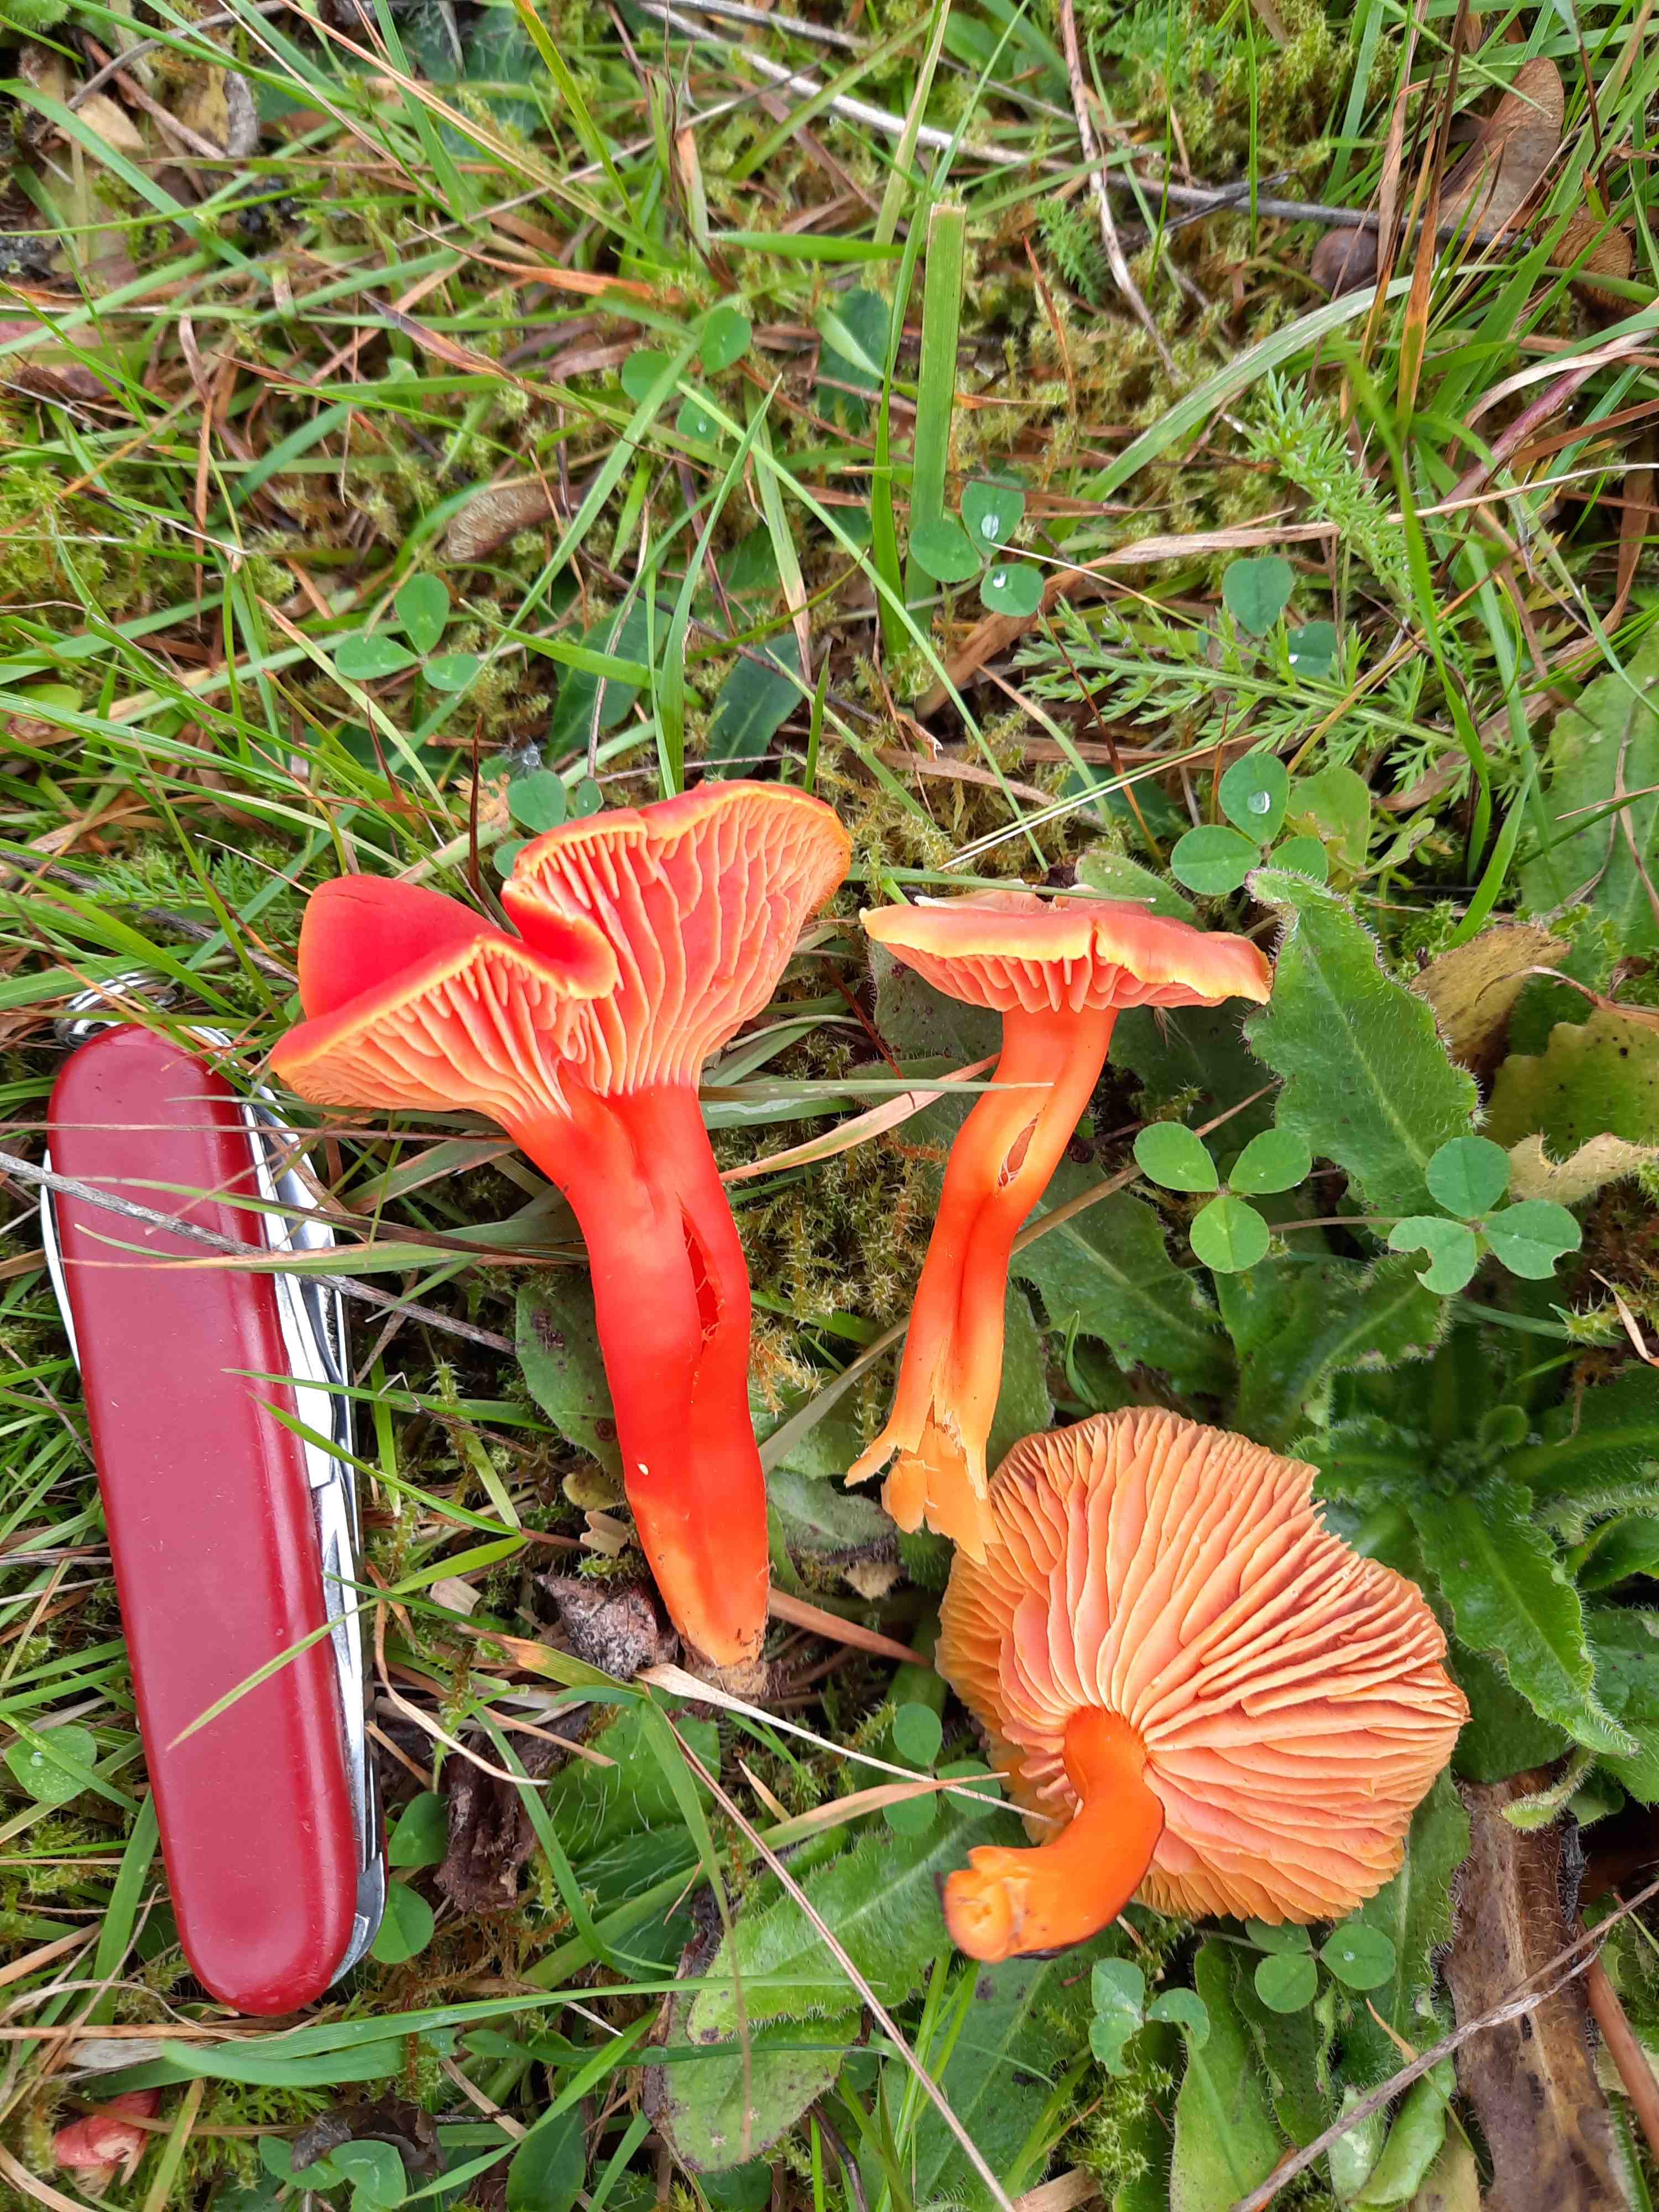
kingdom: Fungi
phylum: Basidiomycota
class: Agaricomycetes
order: Agaricales
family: Hygrophoraceae
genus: Hygrocybe
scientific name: Hygrocybe miniata
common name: mønje-vokshat
